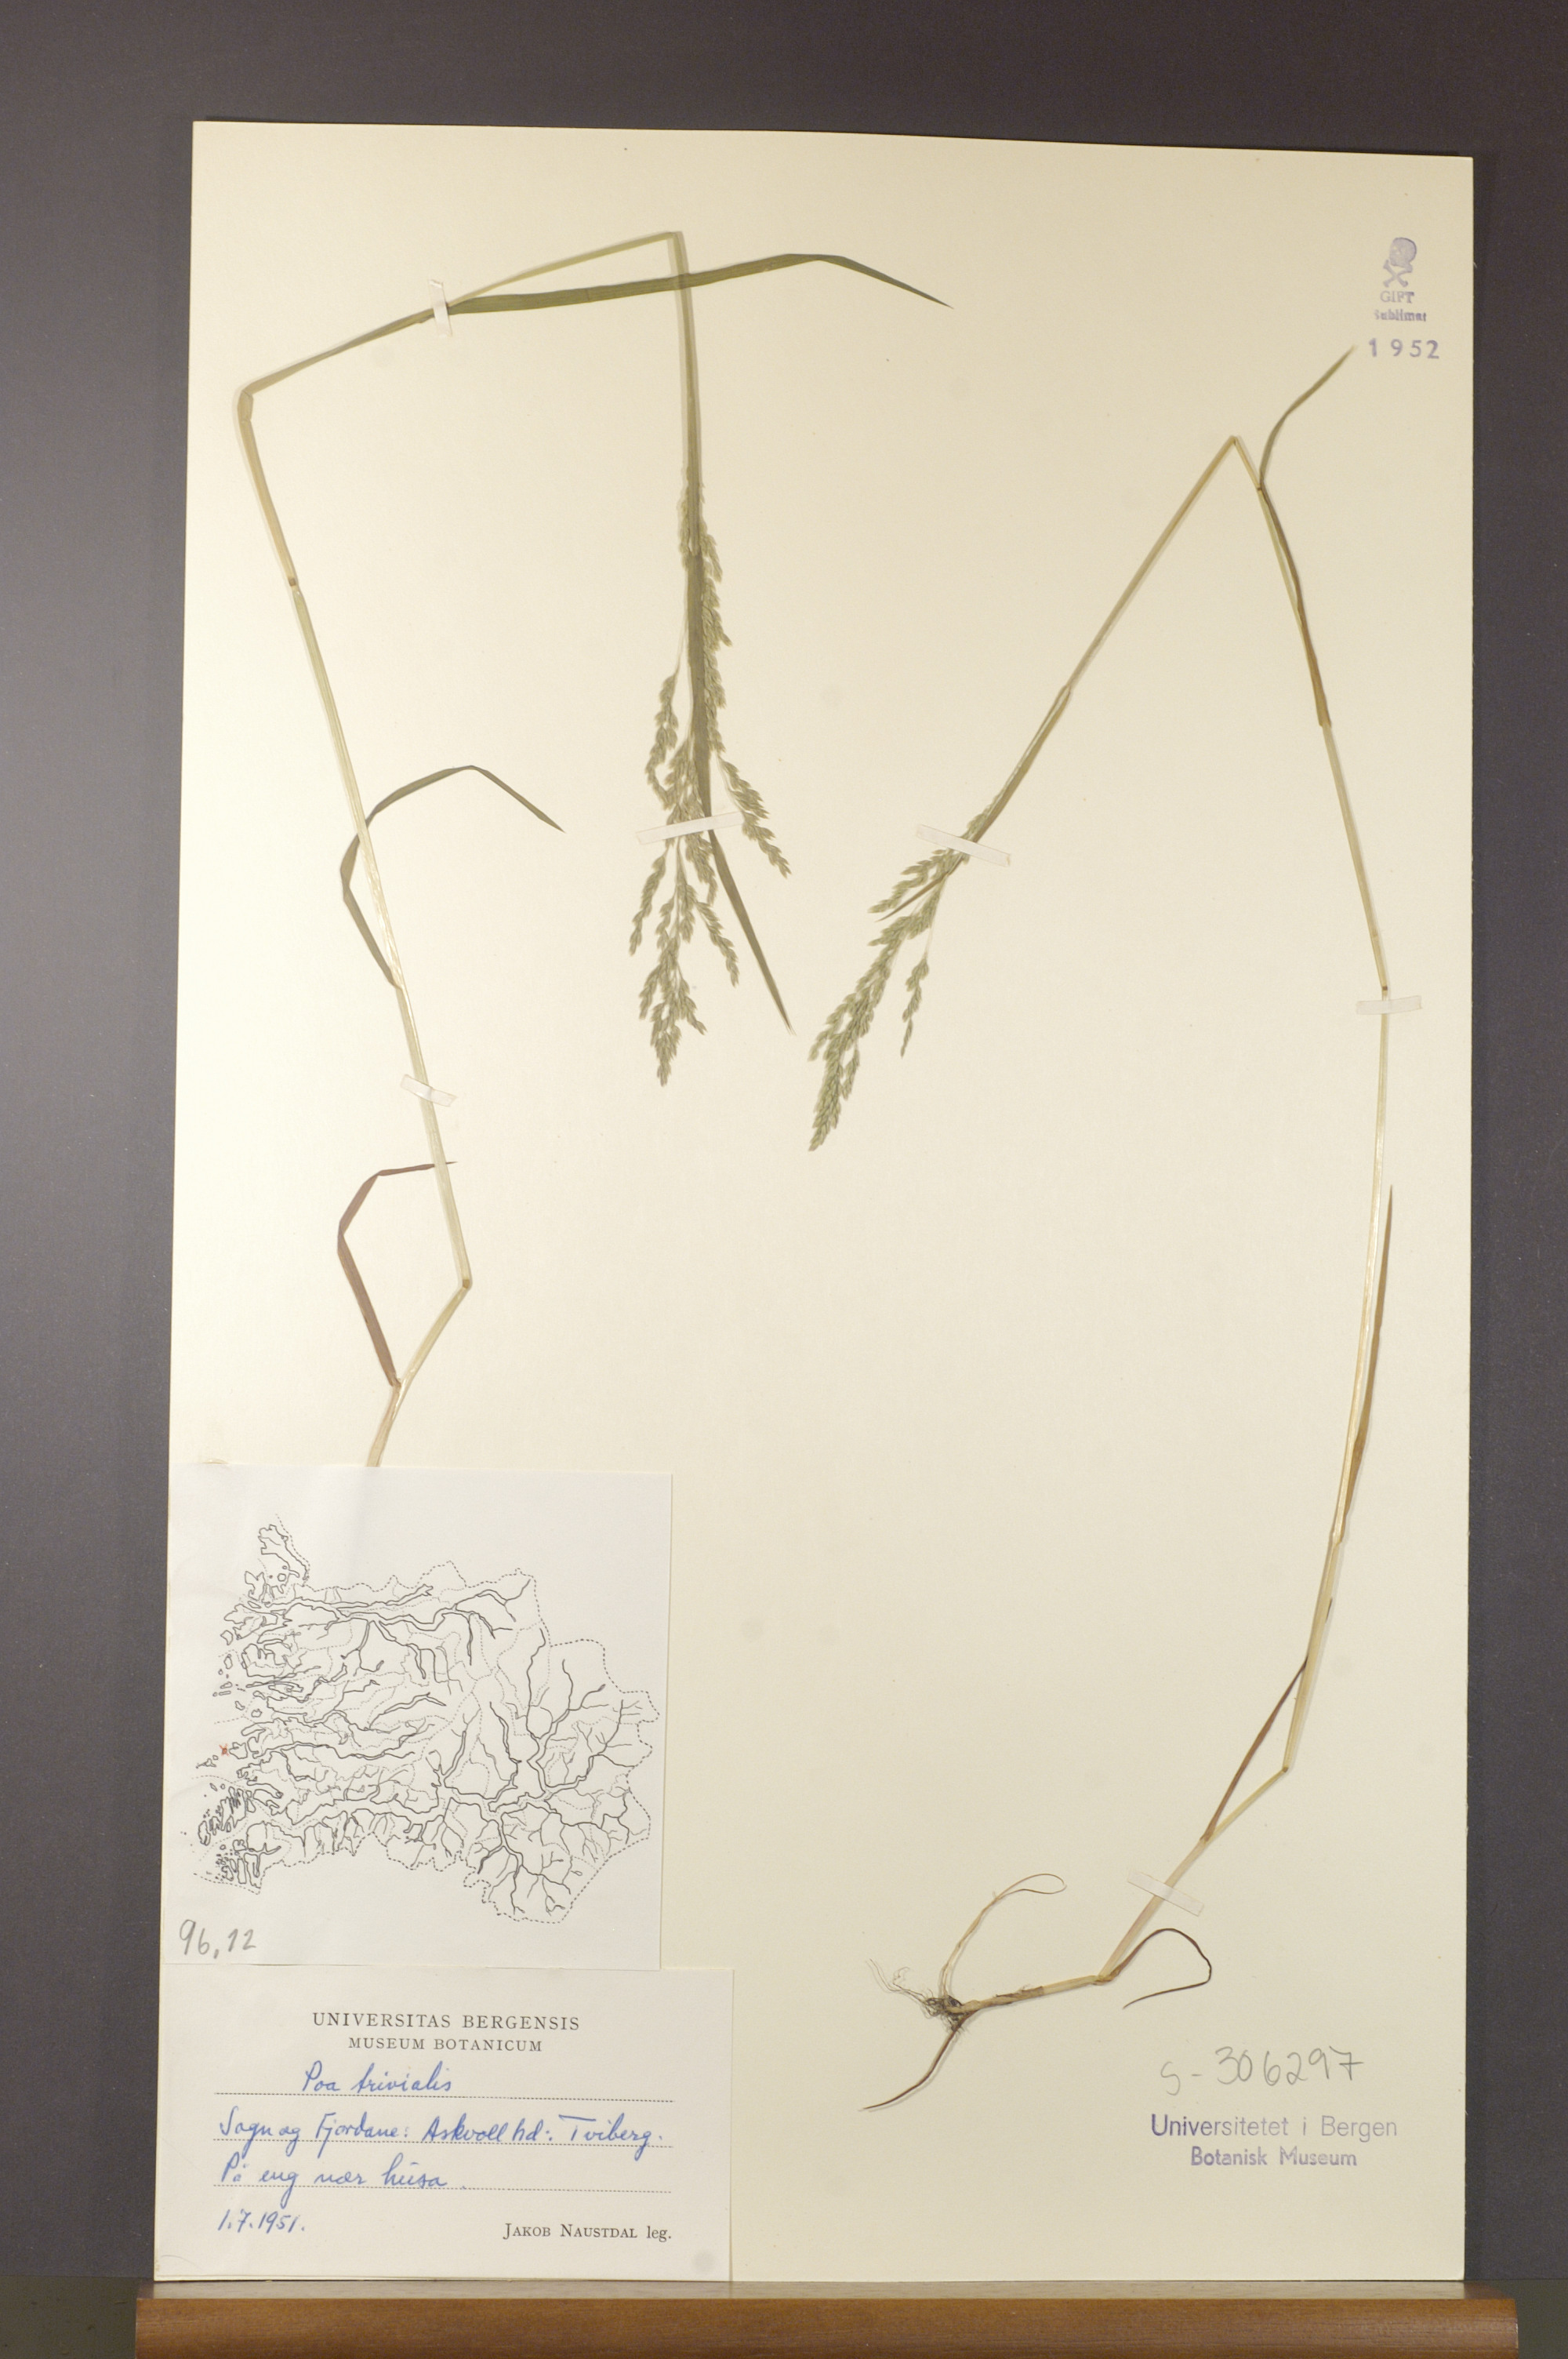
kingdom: Plantae
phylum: Tracheophyta
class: Liliopsida
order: Poales
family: Poaceae
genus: Poa
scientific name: Poa trivialis
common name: Rough bluegrass
